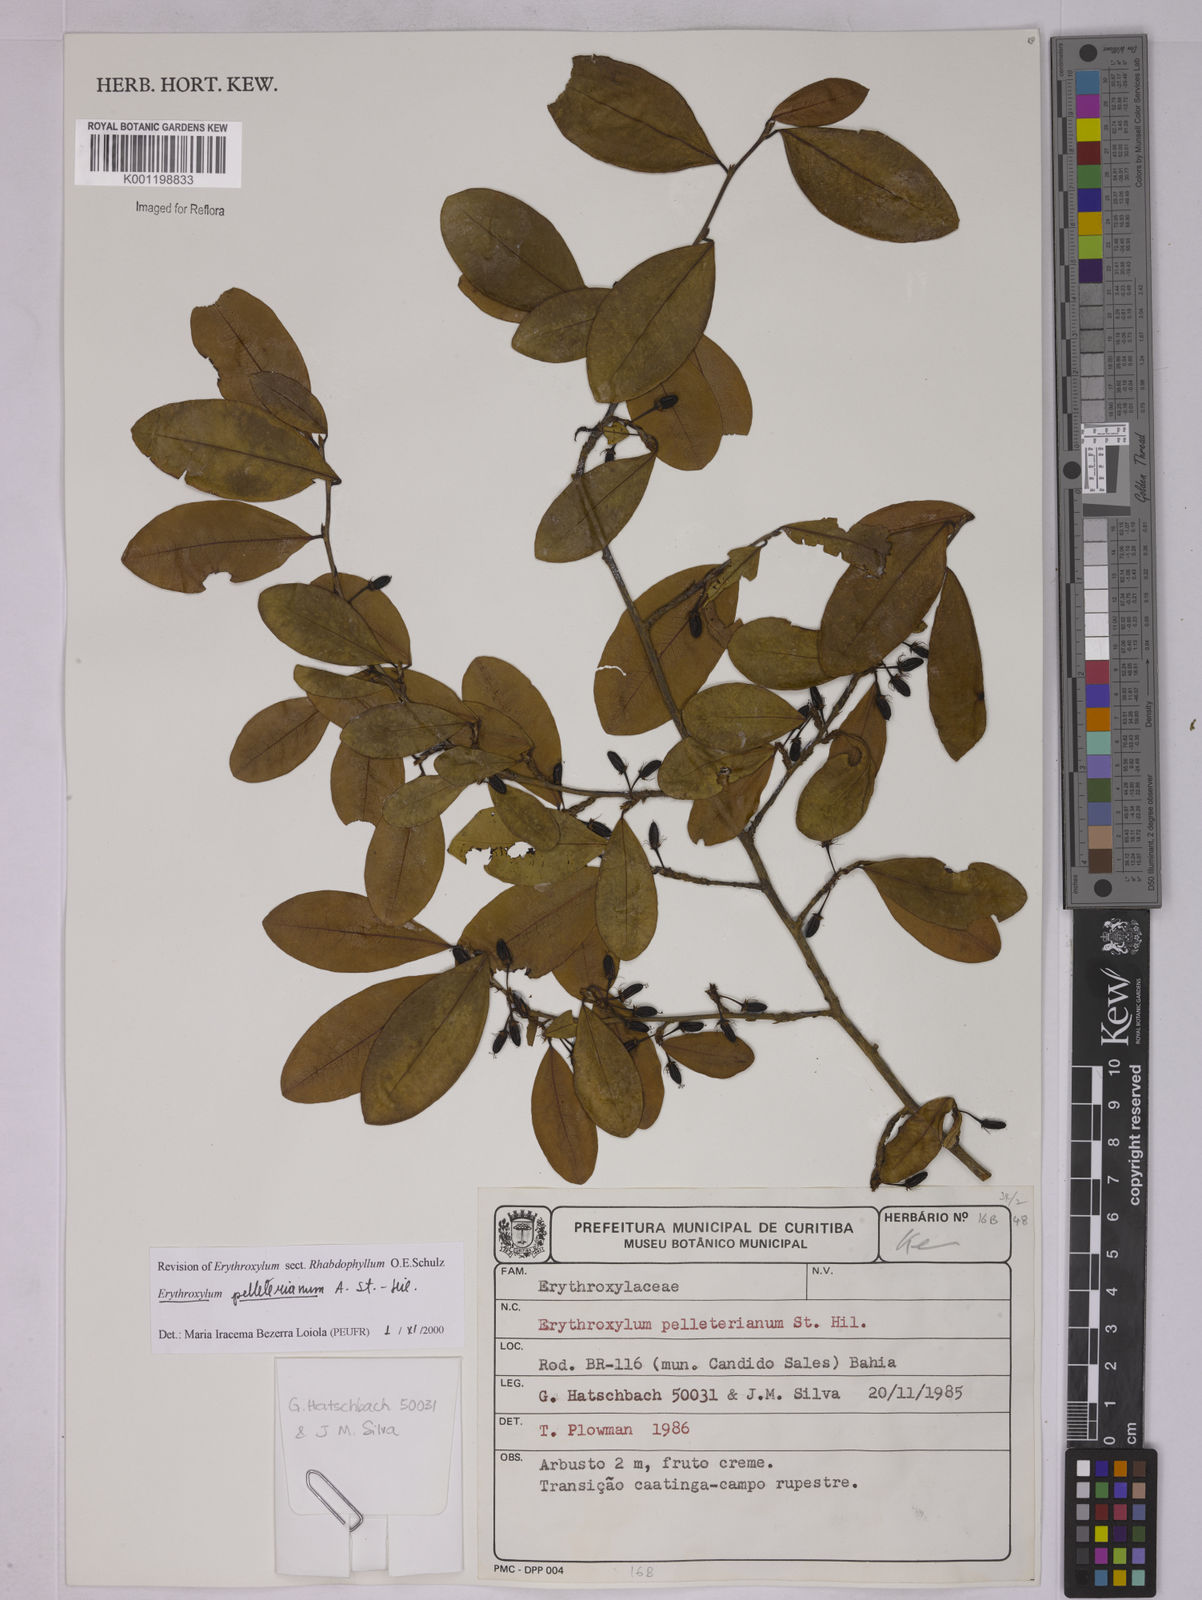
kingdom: Plantae
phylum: Tracheophyta
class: Magnoliopsida
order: Malpighiales
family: Erythroxylaceae
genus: Erythroxylum
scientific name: Erythroxylum pelleterianum
